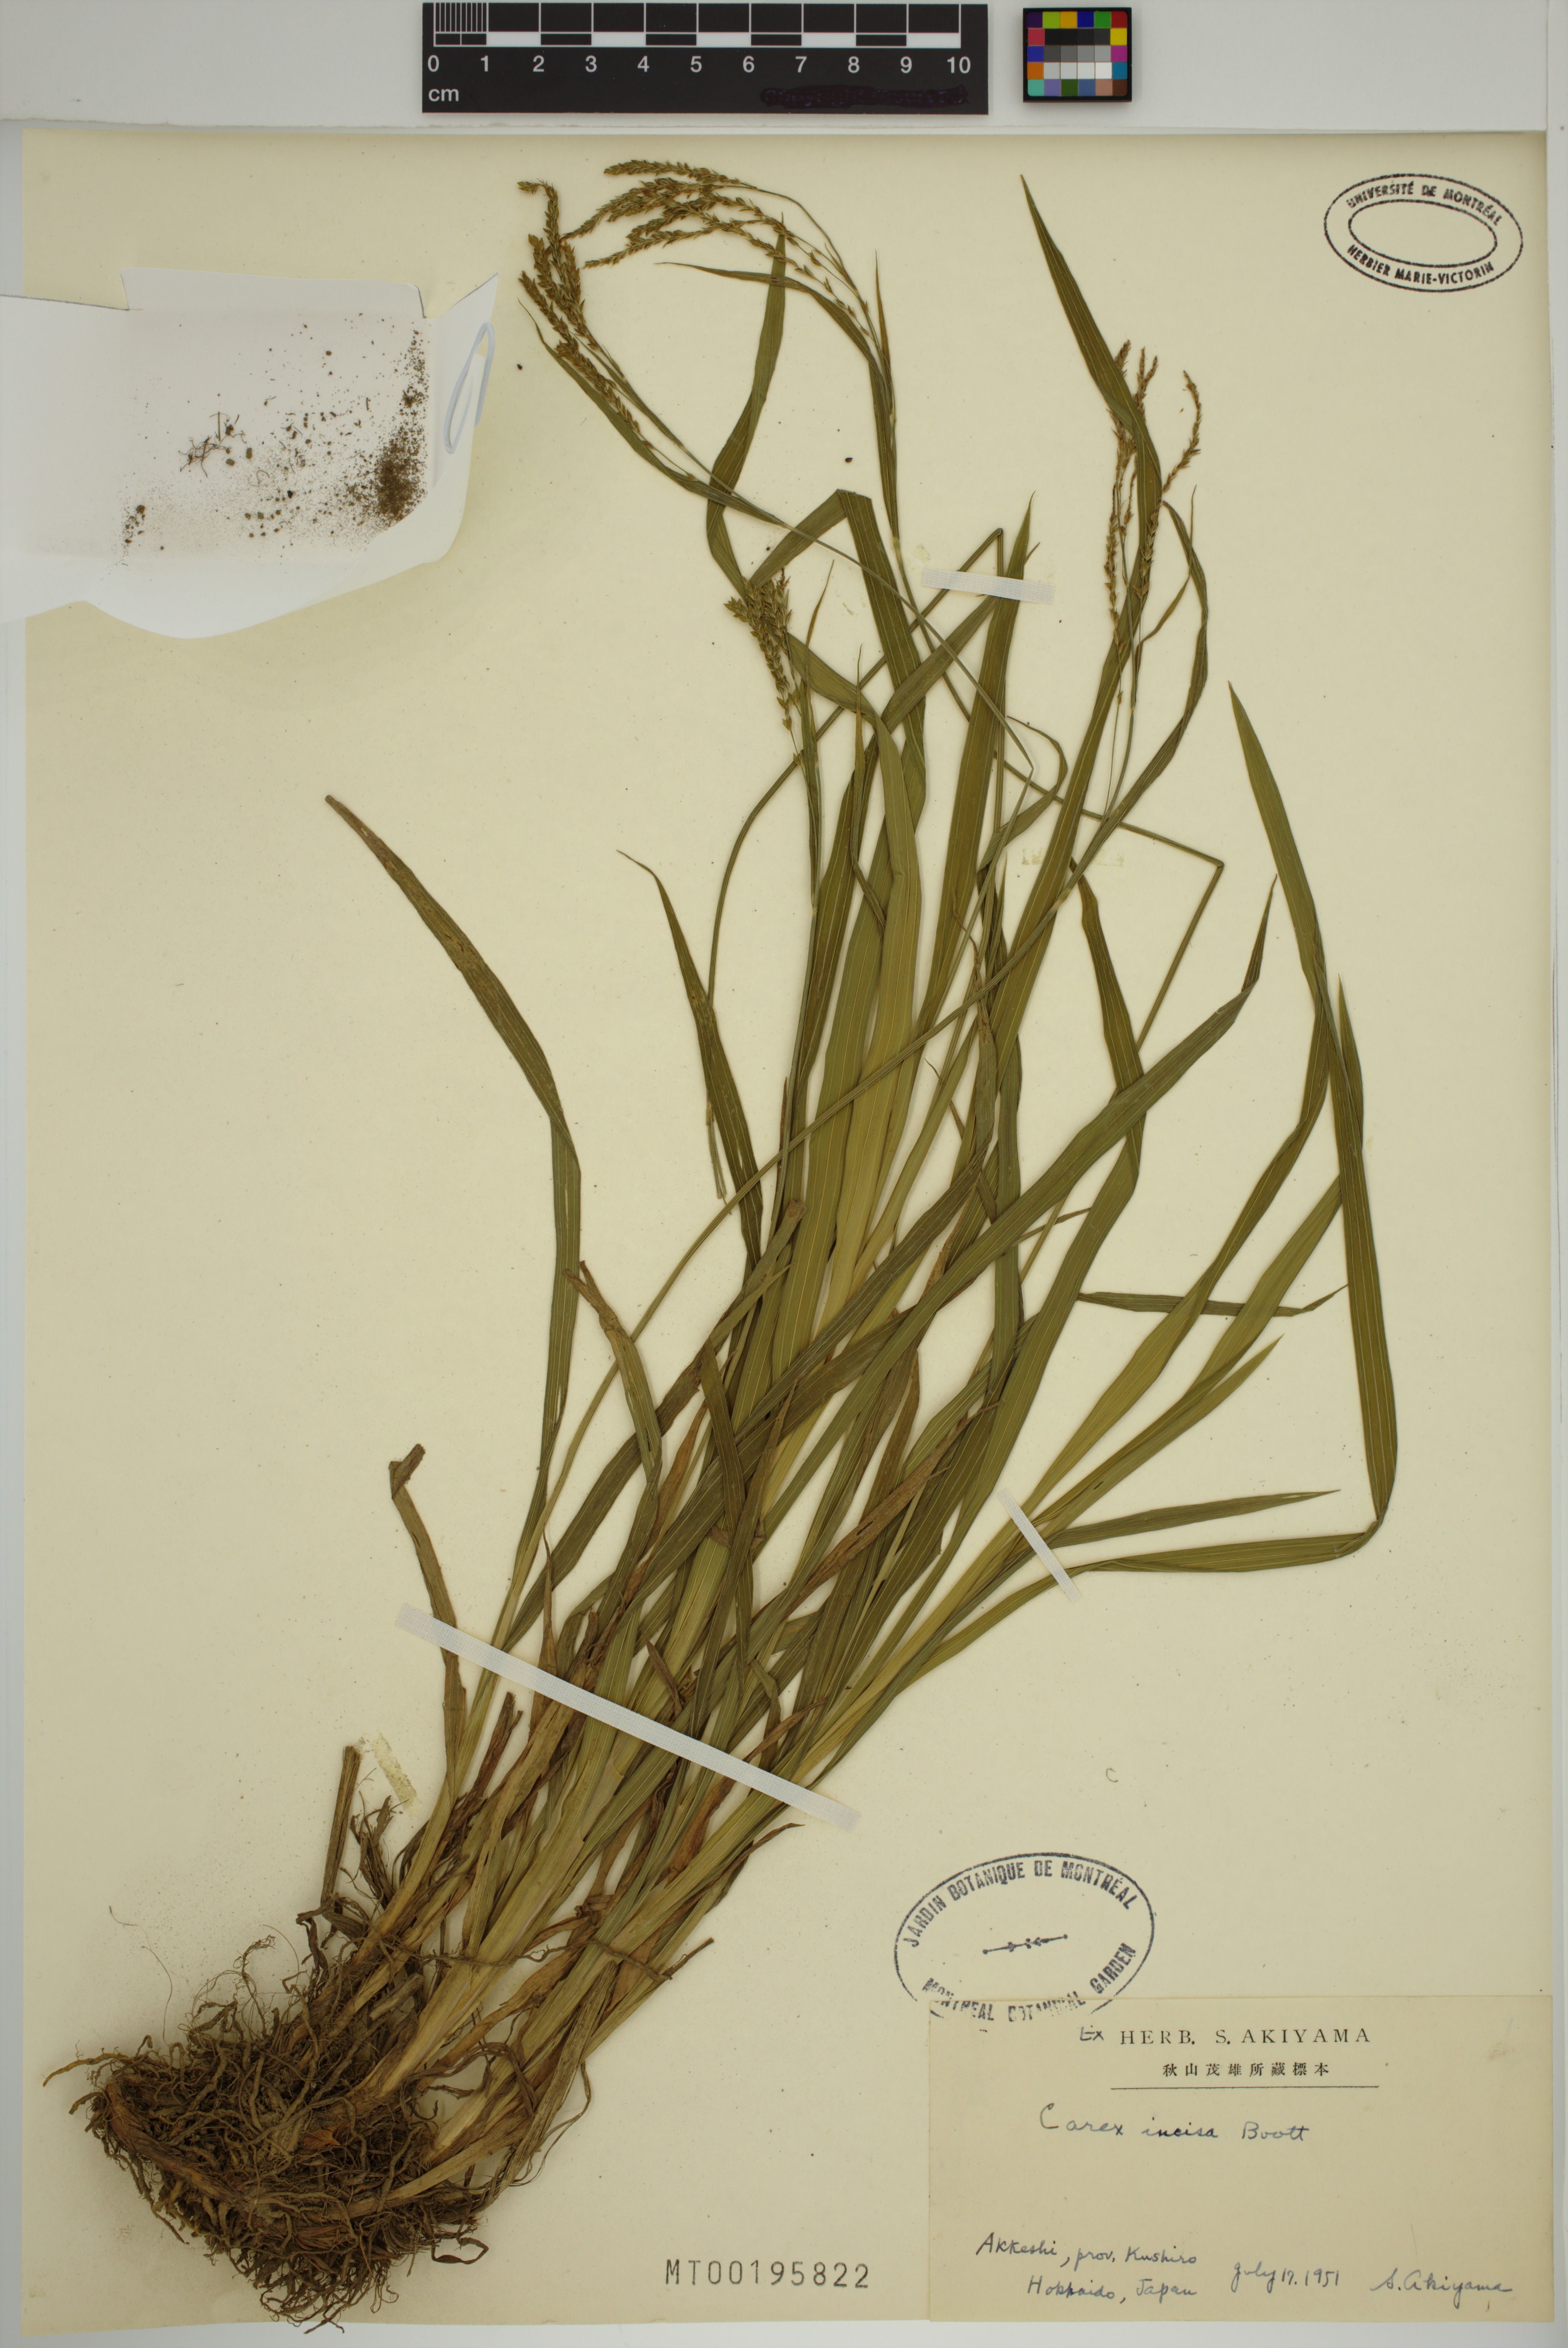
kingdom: Plantae
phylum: Tracheophyta
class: Liliopsida
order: Poales
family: Cyperaceae
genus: Carex
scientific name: Carex incisa
